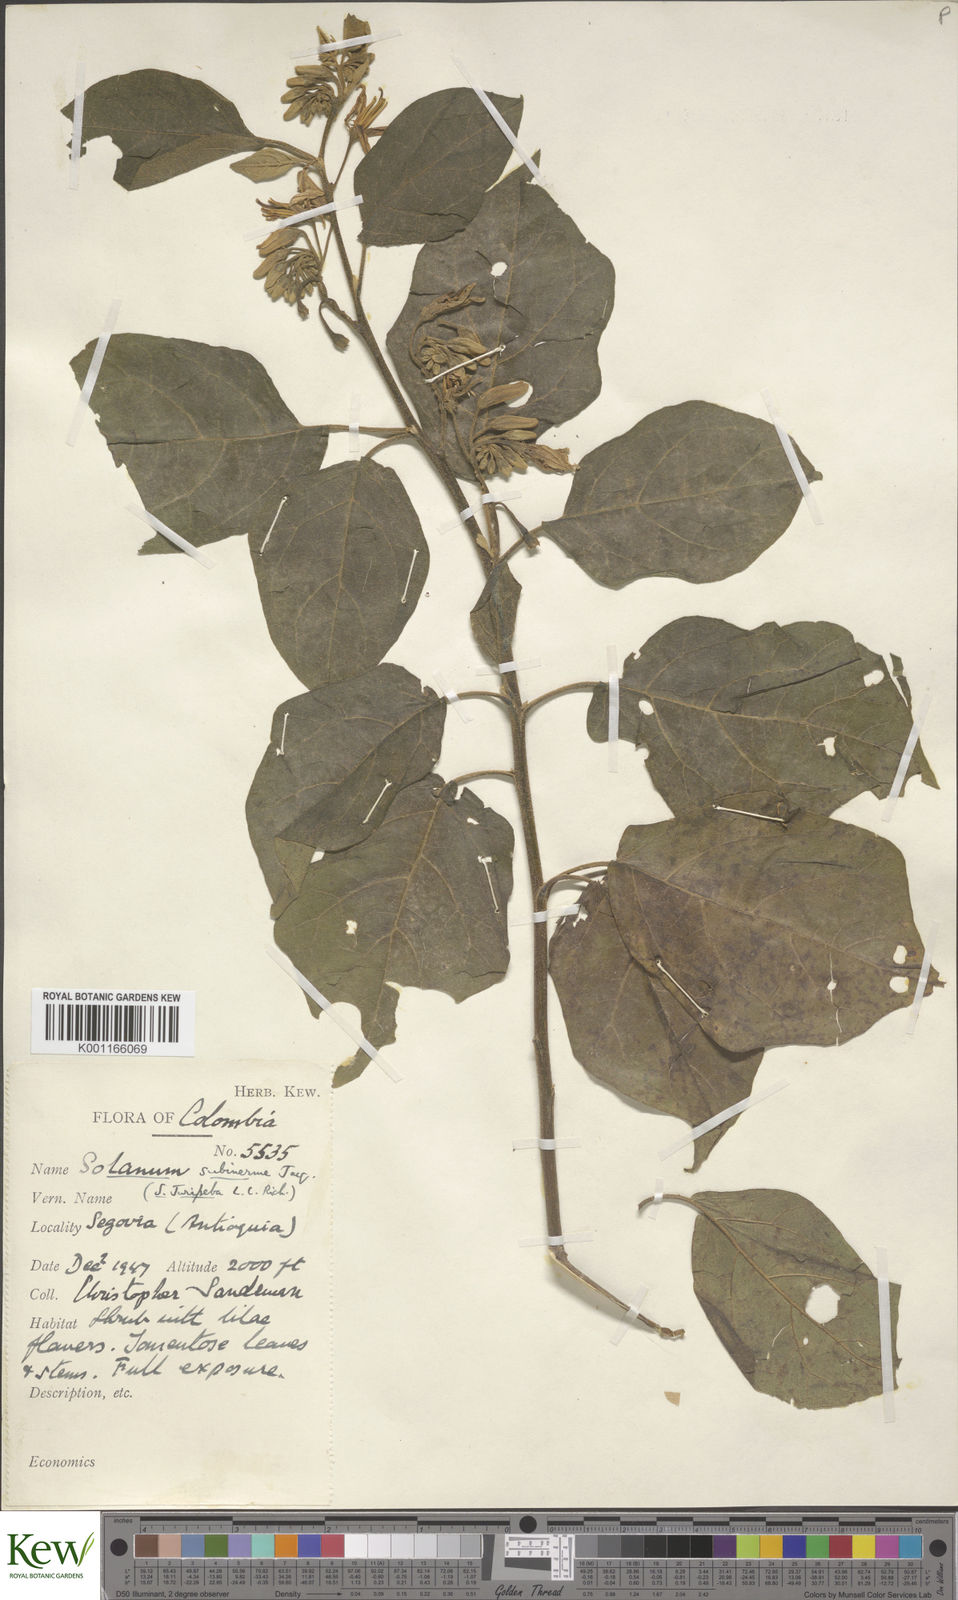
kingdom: Plantae
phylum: Tracheophyta
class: Magnoliopsida
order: Solanales
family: Solanaceae
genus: Solanum
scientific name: Solanum subinerme
